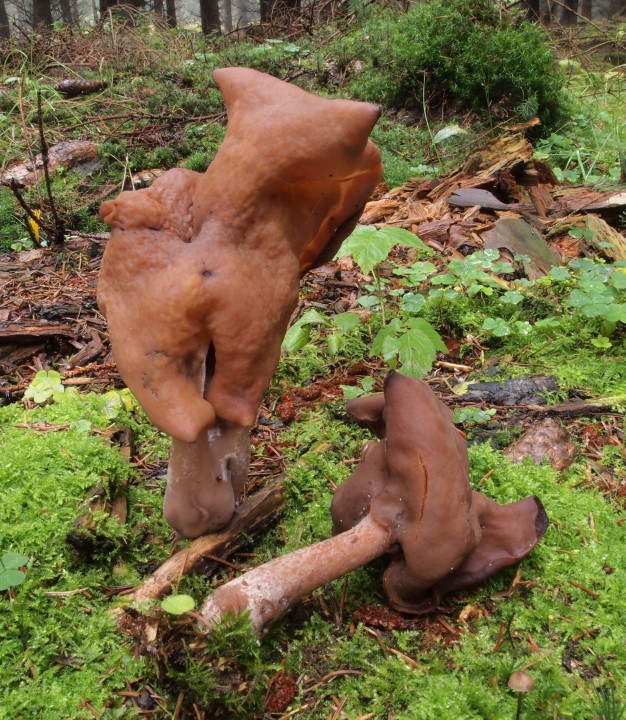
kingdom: Fungi
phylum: Ascomycota
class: Pezizomycetes
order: Pezizales
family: Discinaceae
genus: Gyromitra
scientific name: Gyromitra infula
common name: bispehue-stenmorkel
